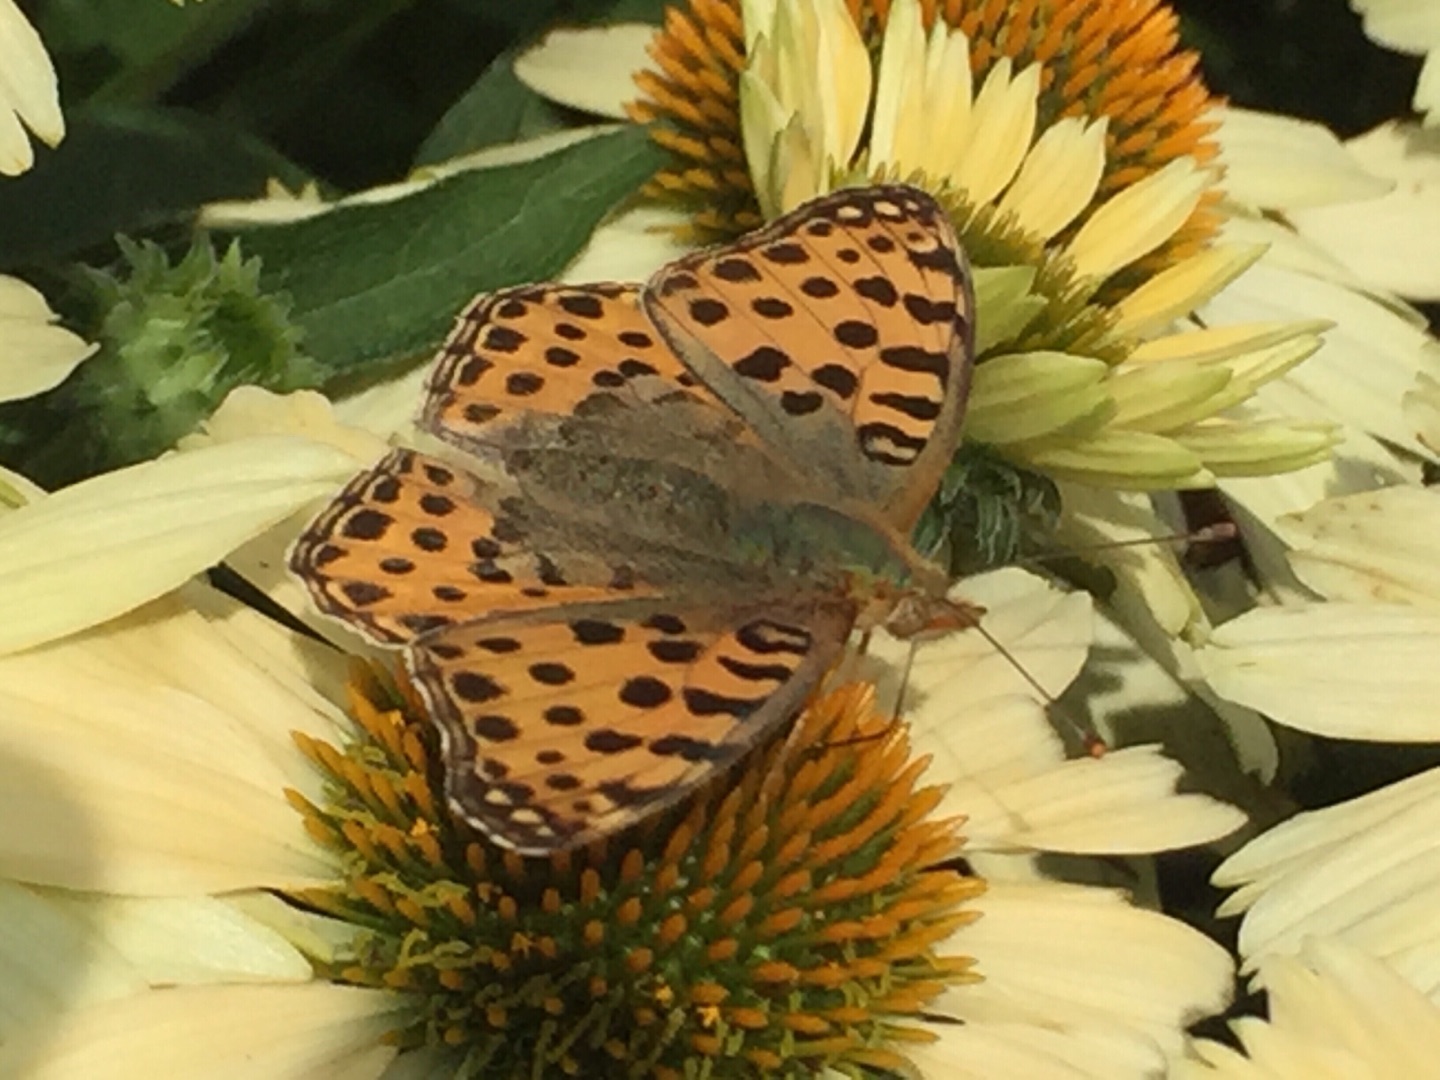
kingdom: Animalia
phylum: Arthropoda
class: Insecta
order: Lepidoptera
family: Nymphalidae
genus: Issoria
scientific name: Issoria lathonia
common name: Storplettet perlemorsommerfugl
